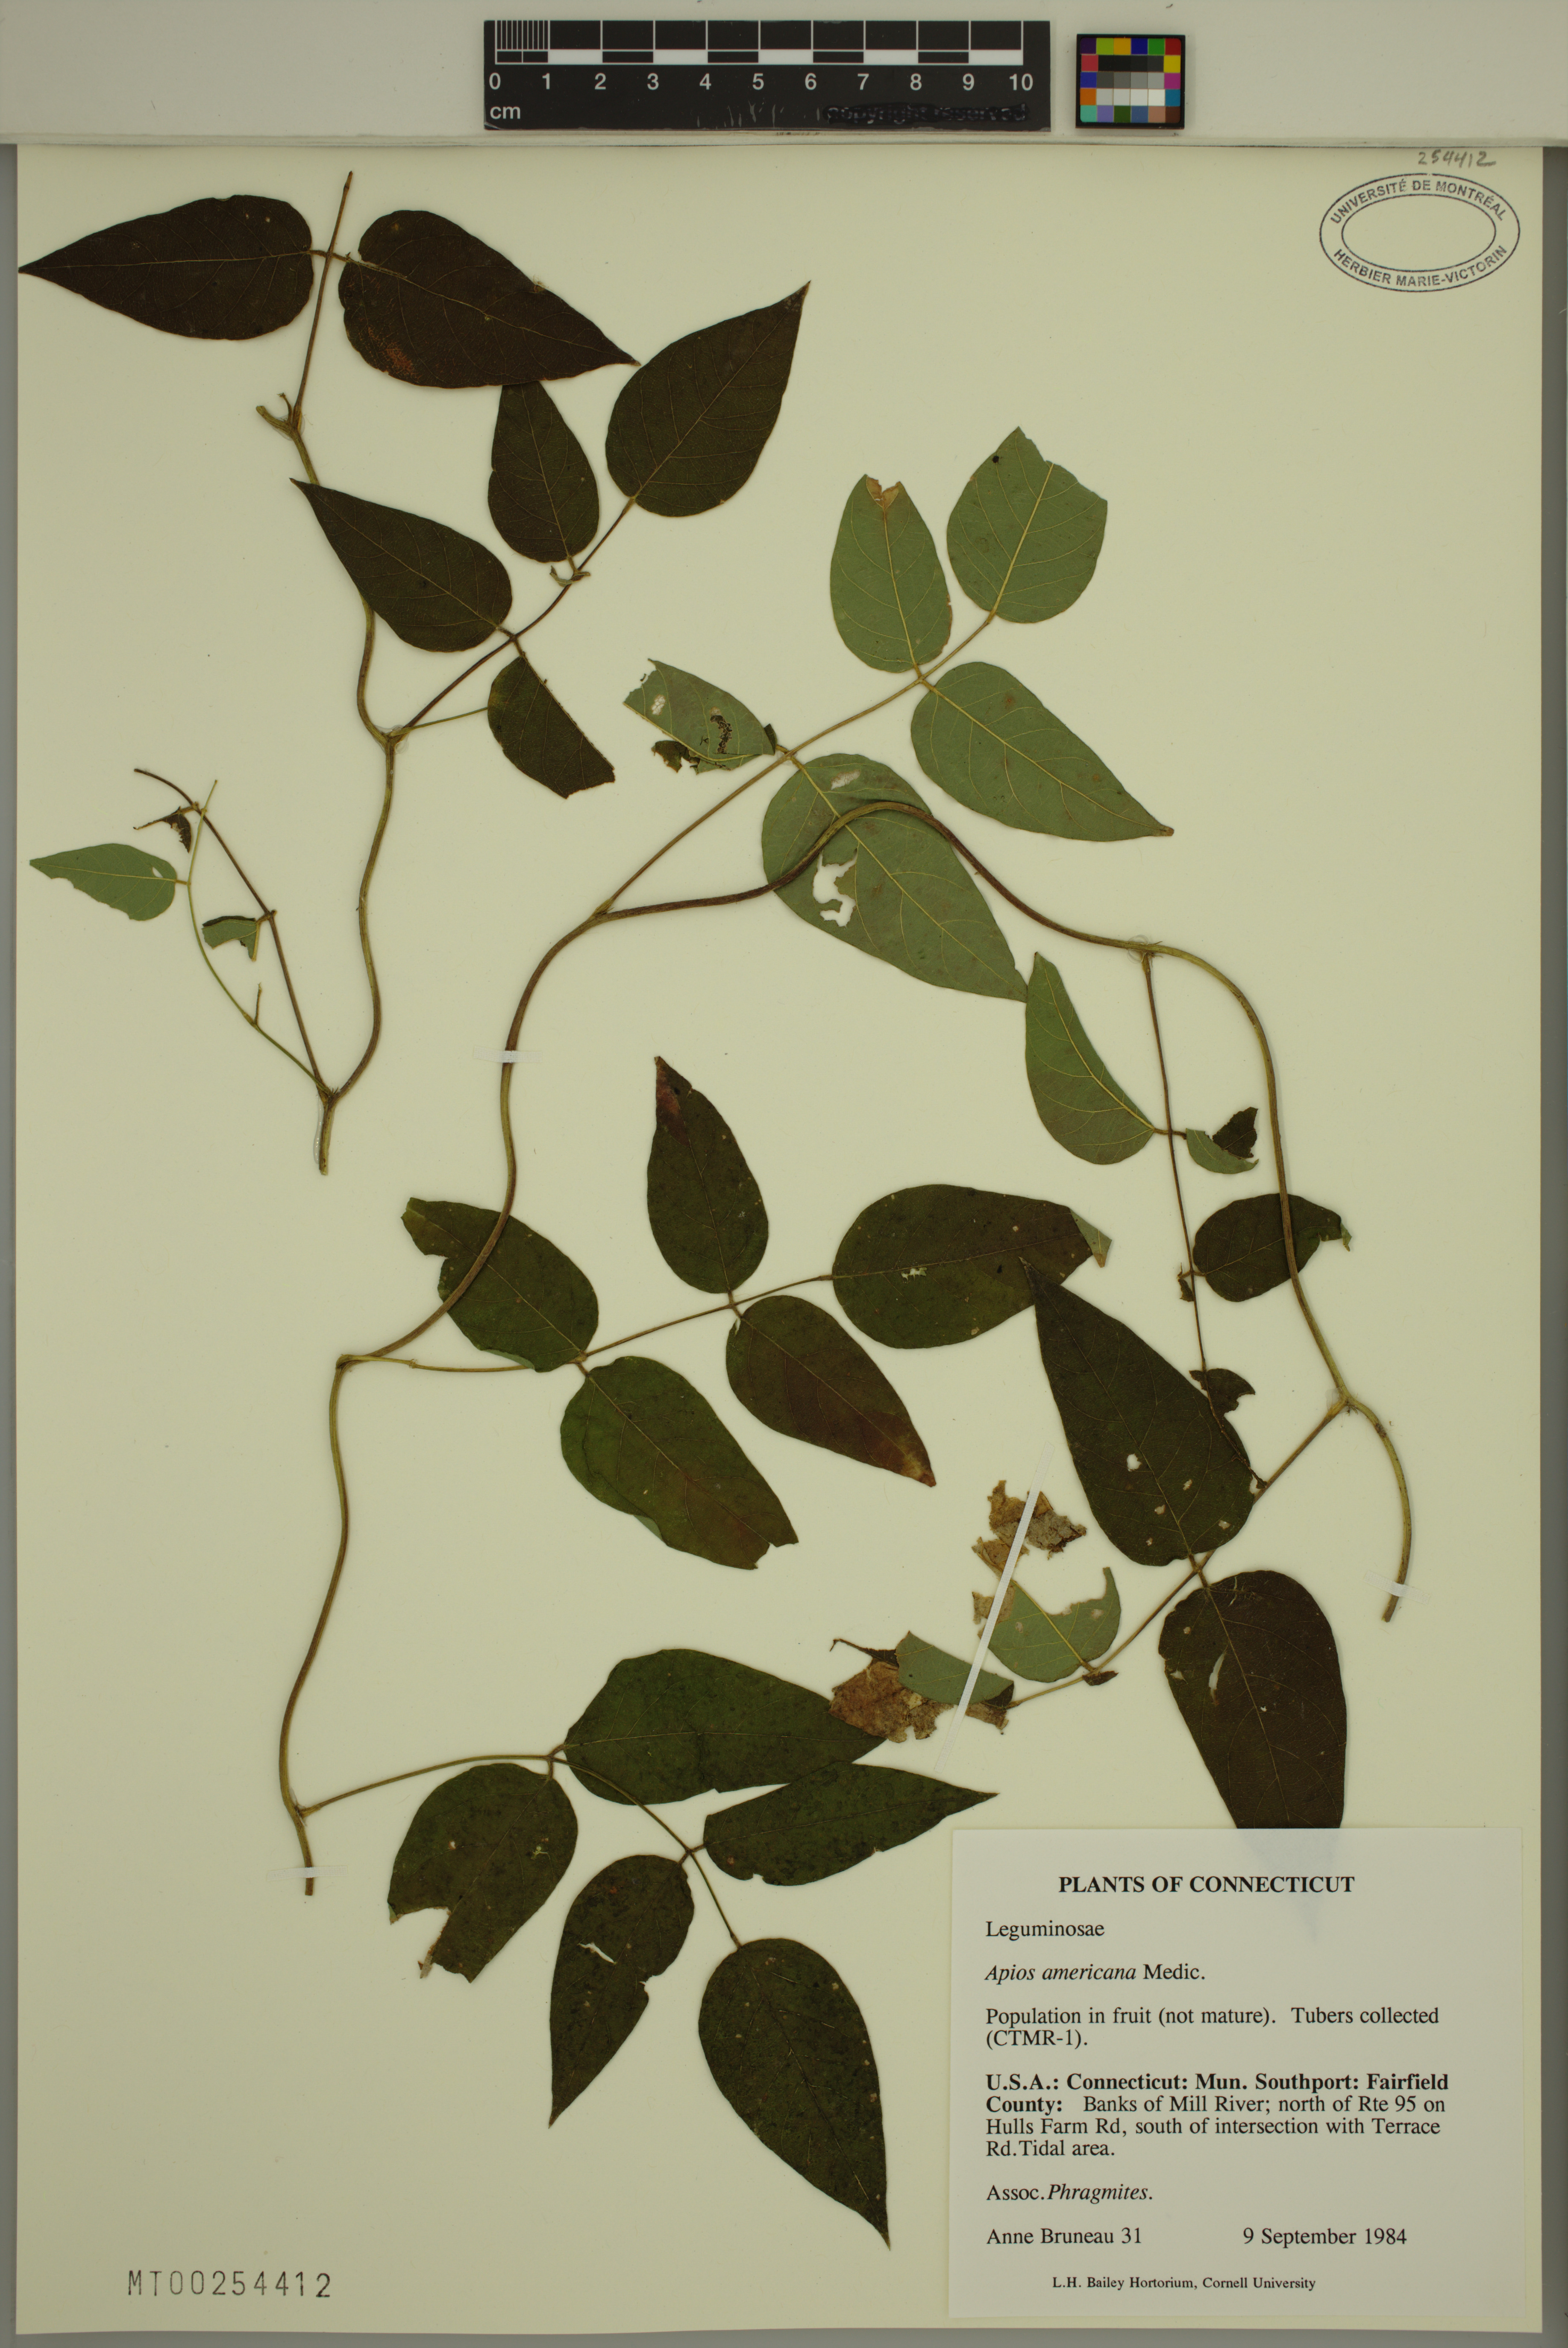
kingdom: Plantae
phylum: Tracheophyta
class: Magnoliopsida
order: Fabales
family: Fabaceae
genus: Apios
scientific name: Apios americana
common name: American potato-bean
